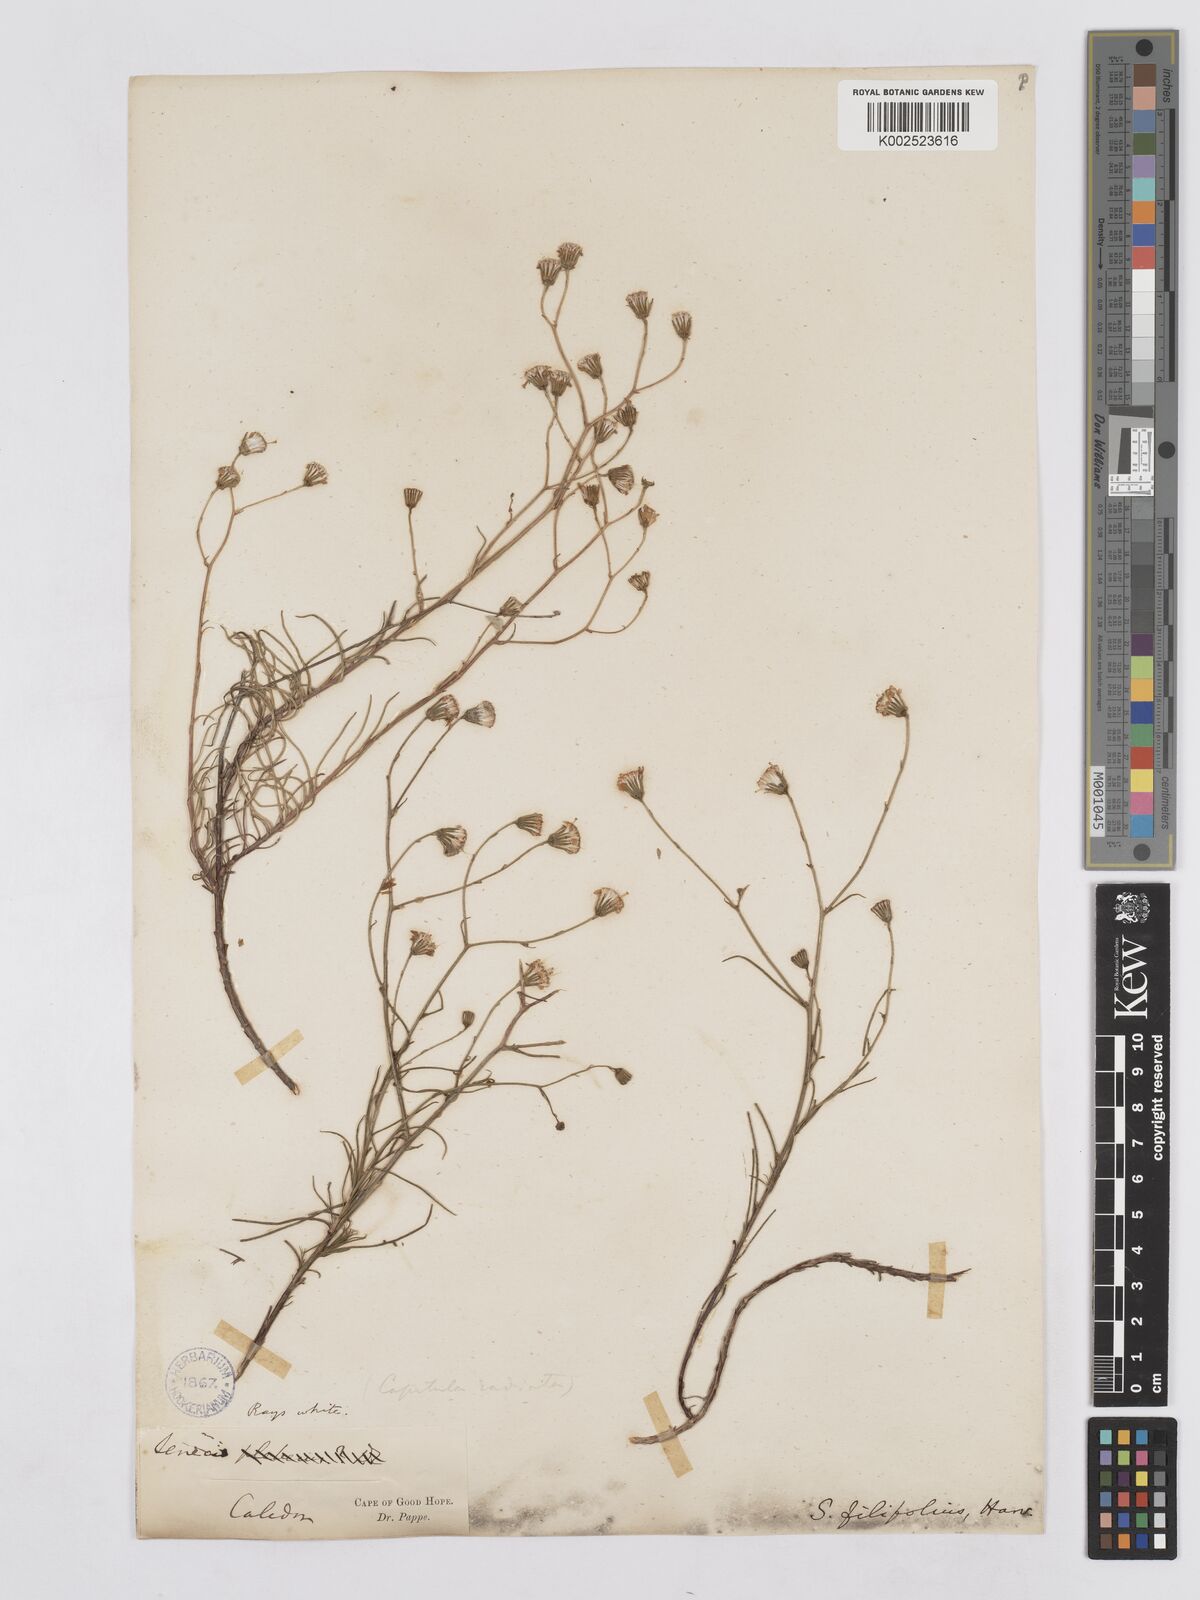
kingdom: Plantae
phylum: Tracheophyta
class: Magnoliopsida
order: Asterales
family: Asteraceae
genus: Senecio
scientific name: Senecio
